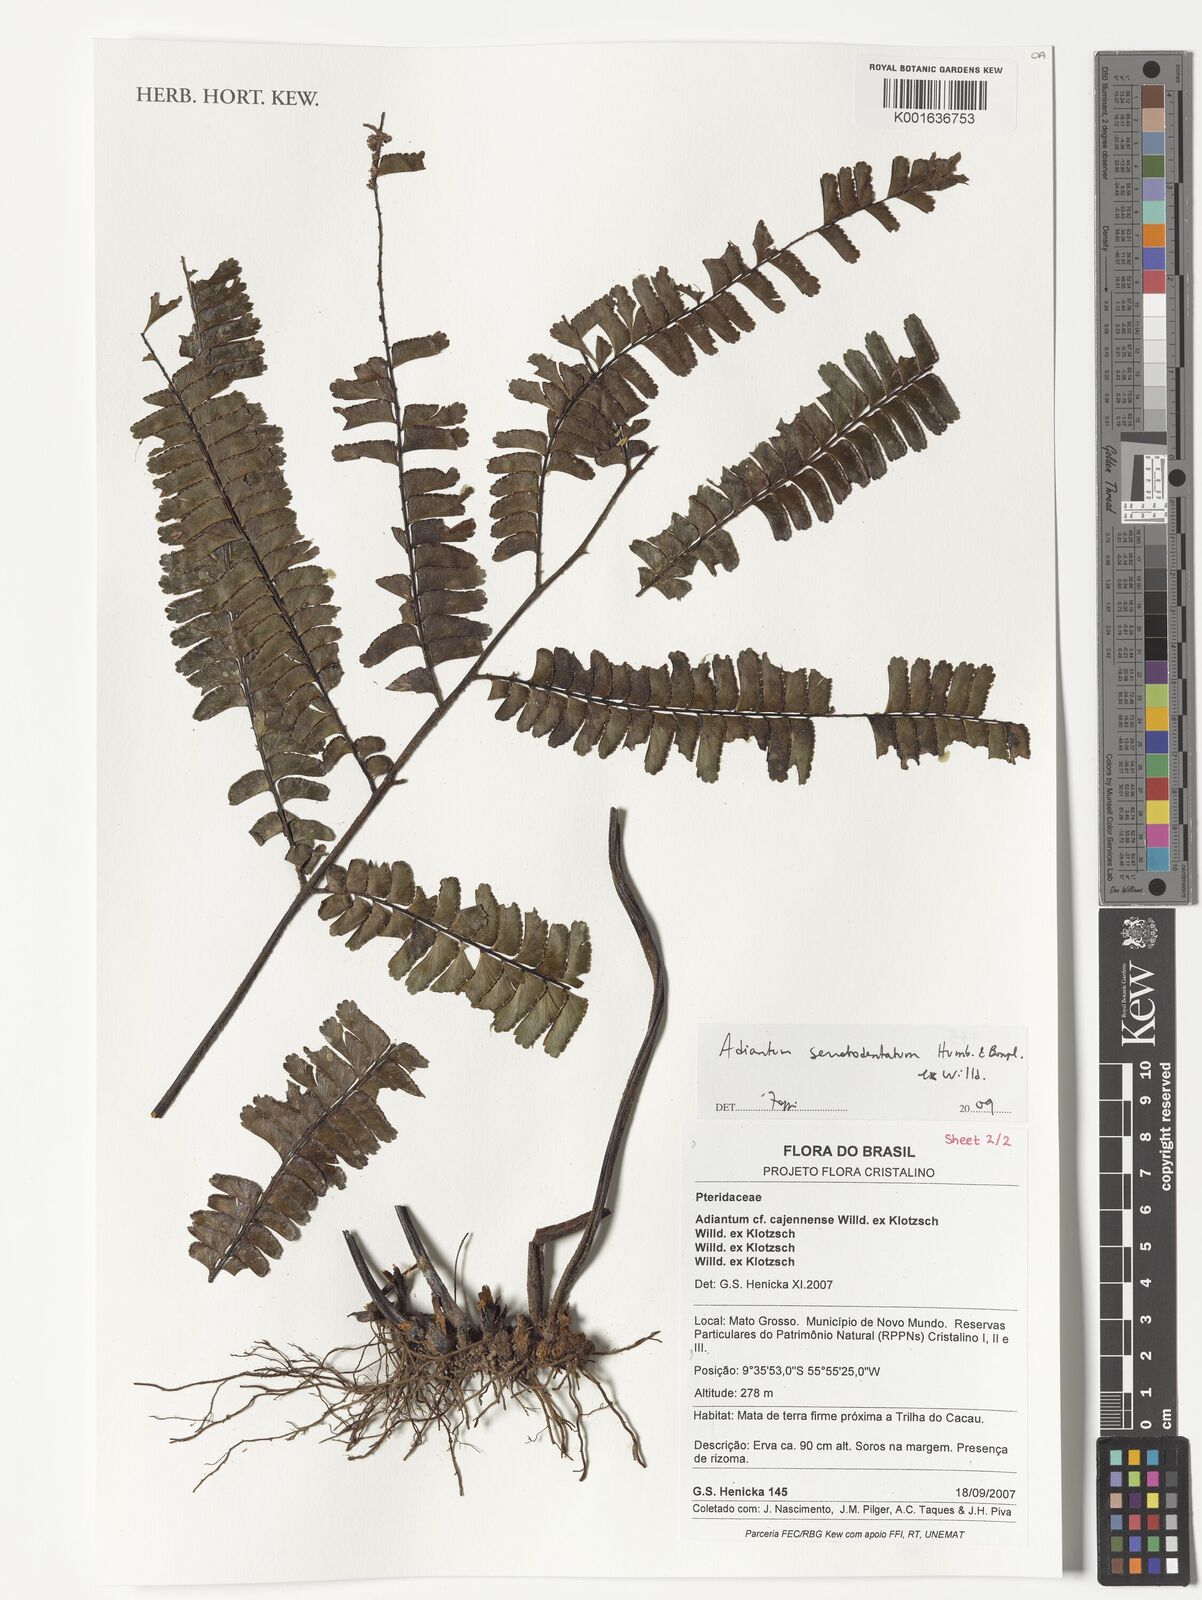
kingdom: Plantae
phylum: Tracheophyta
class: Polypodiopsida
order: Polypodiales
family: Pteridaceae
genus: Adiantum
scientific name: Adiantum serratodentatum
